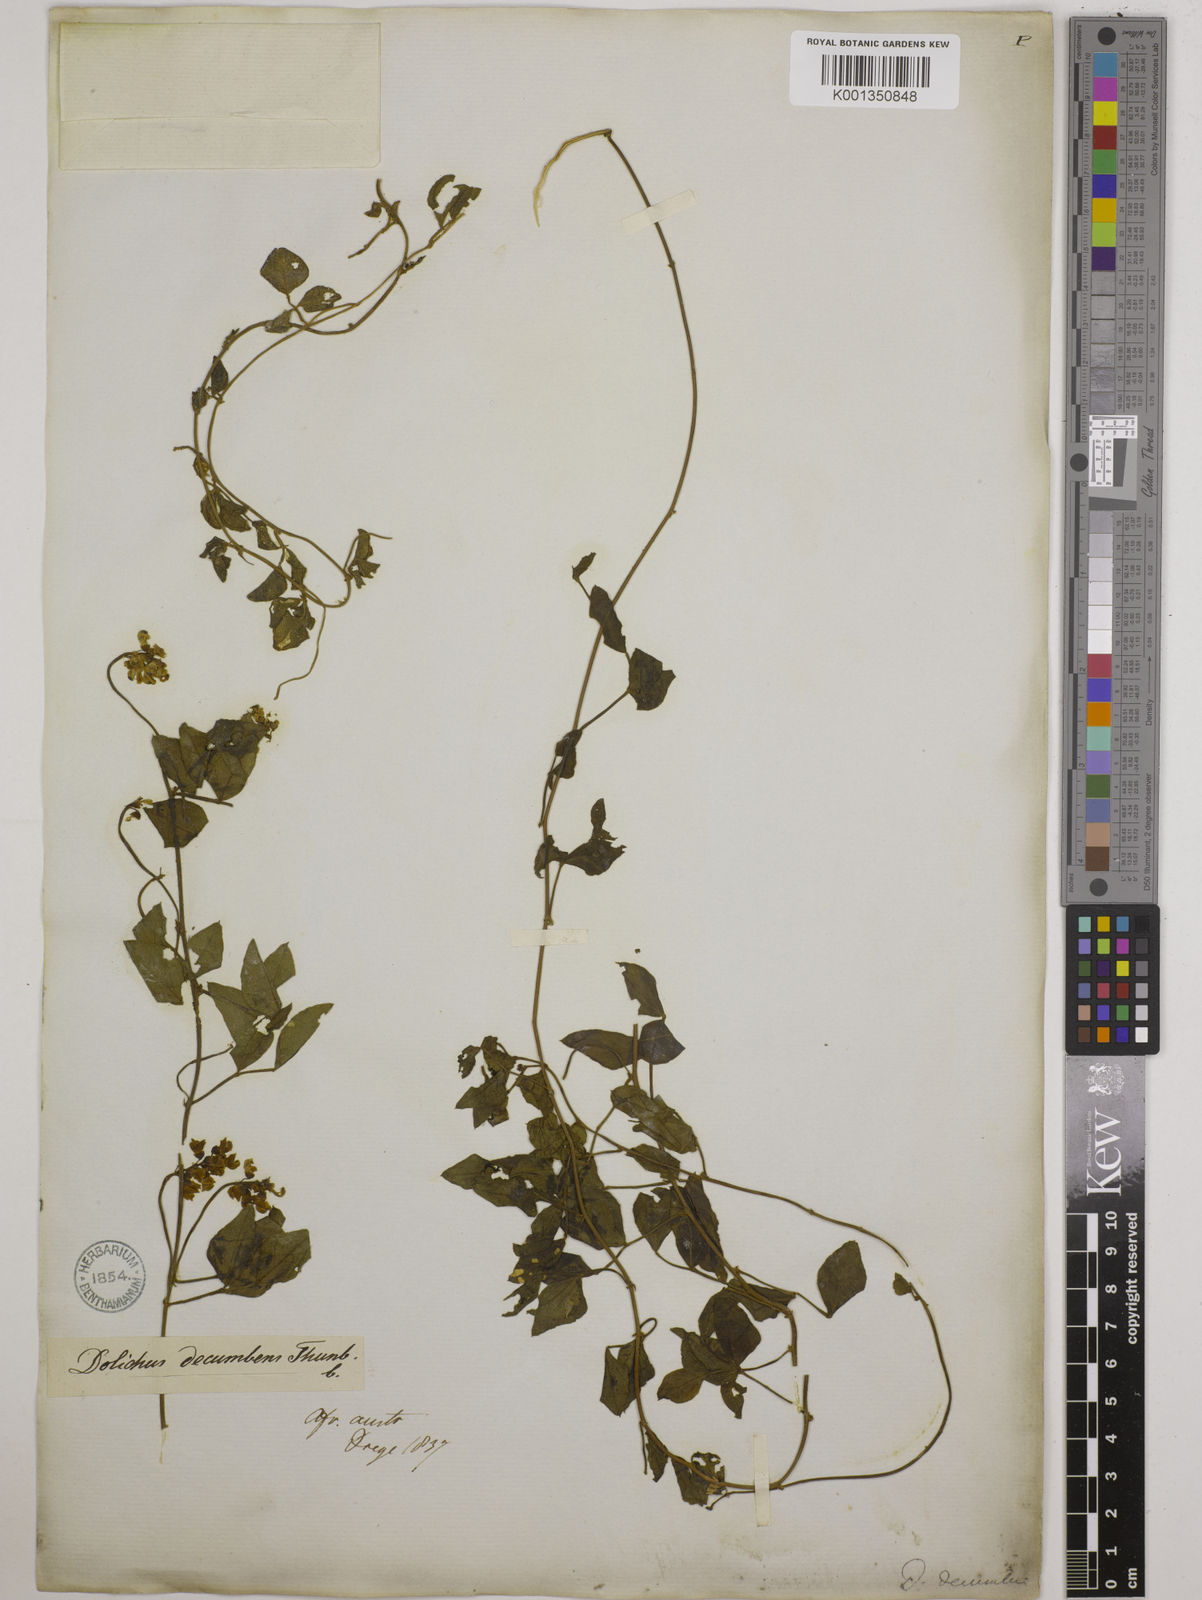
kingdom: Plantae
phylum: Tracheophyta
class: Magnoliopsida
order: Fabales
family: Fabaceae
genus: Dolichos
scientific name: Dolichos decumbens
